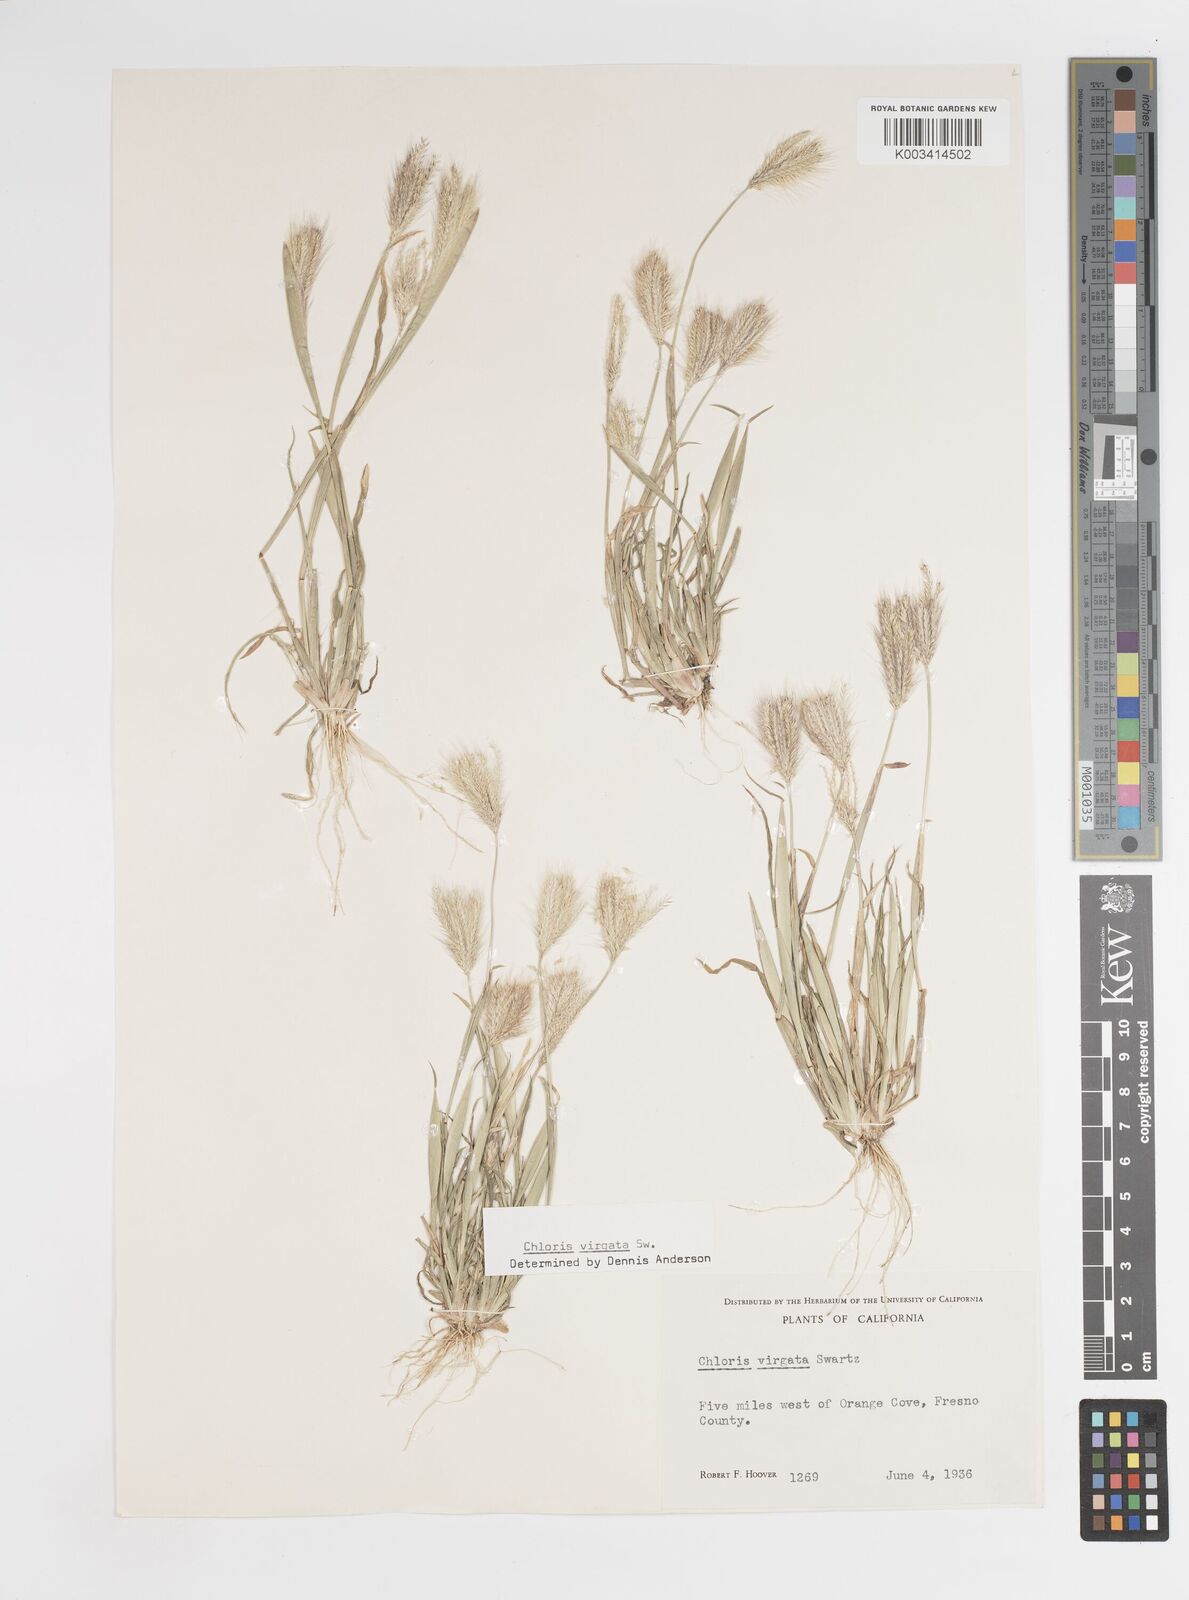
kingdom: Plantae
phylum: Tracheophyta
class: Liliopsida
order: Poales
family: Poaceae
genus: Chloris
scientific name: Chloris virgata
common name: Feathery rhodes-grass
